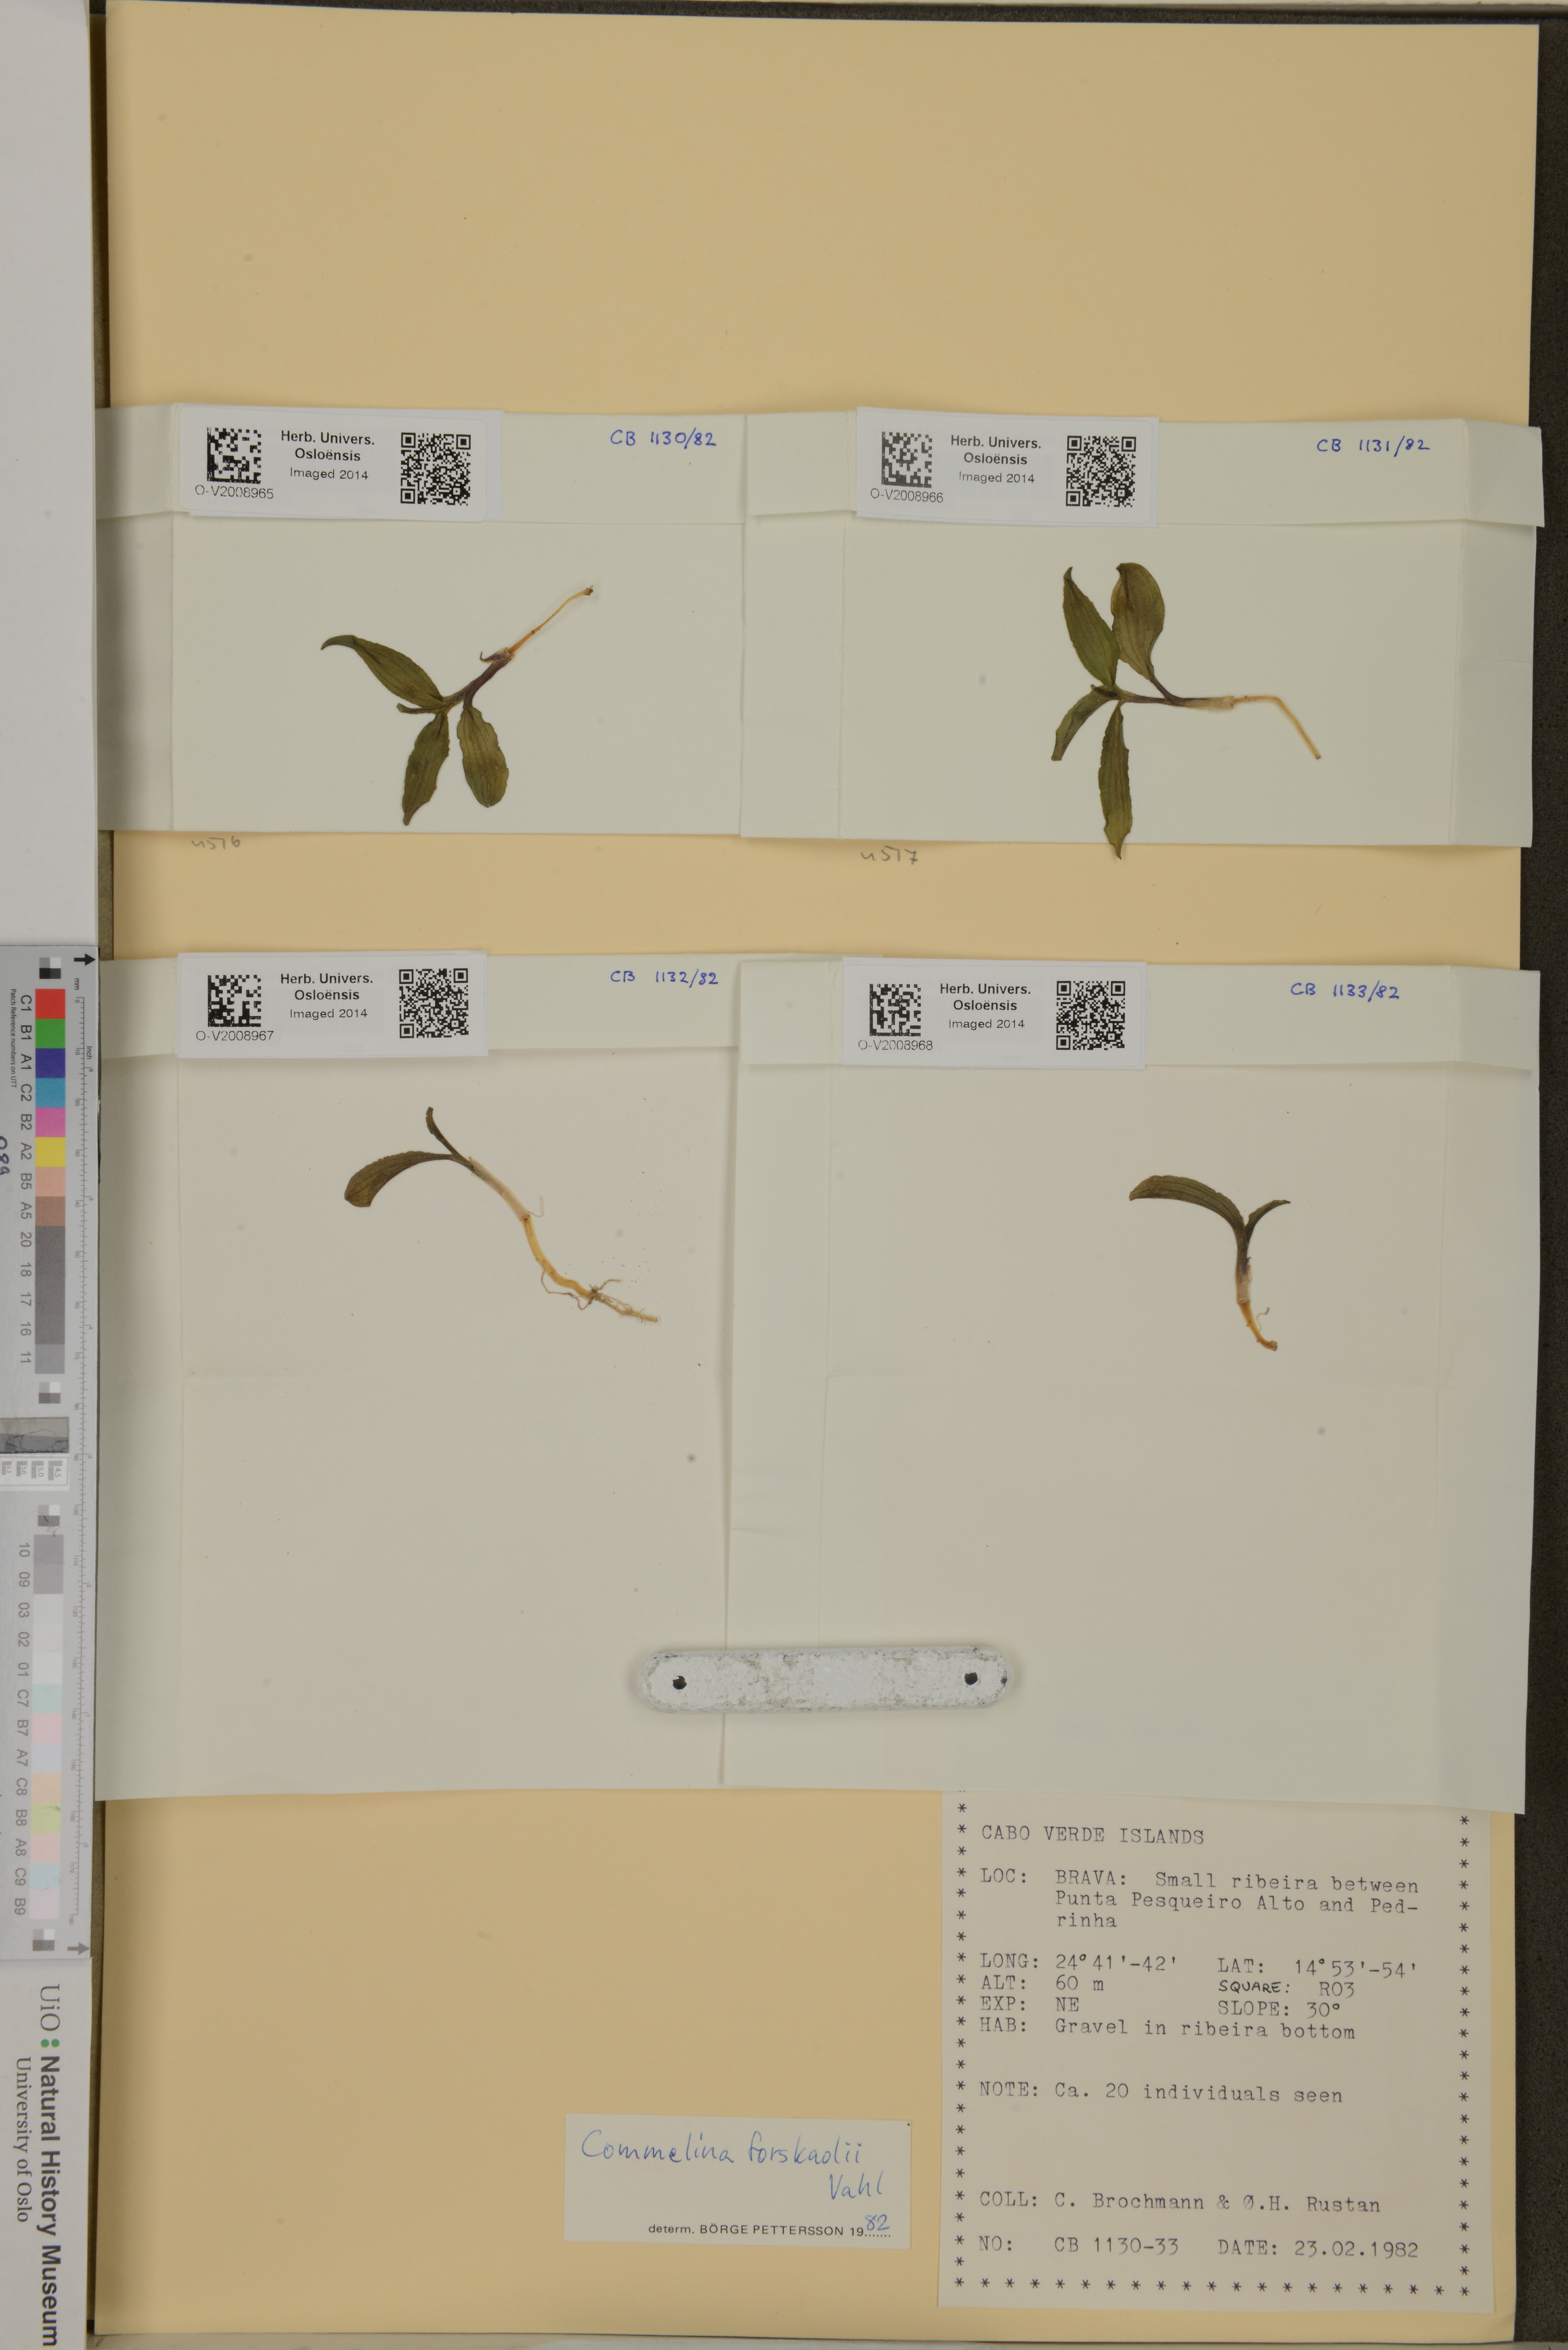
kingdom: Plantae
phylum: Tracheophyta
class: Liliopsida
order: Commelinales
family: Commelinaceae
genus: Commelina
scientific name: Commelina forskaolii
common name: Rat's ear
